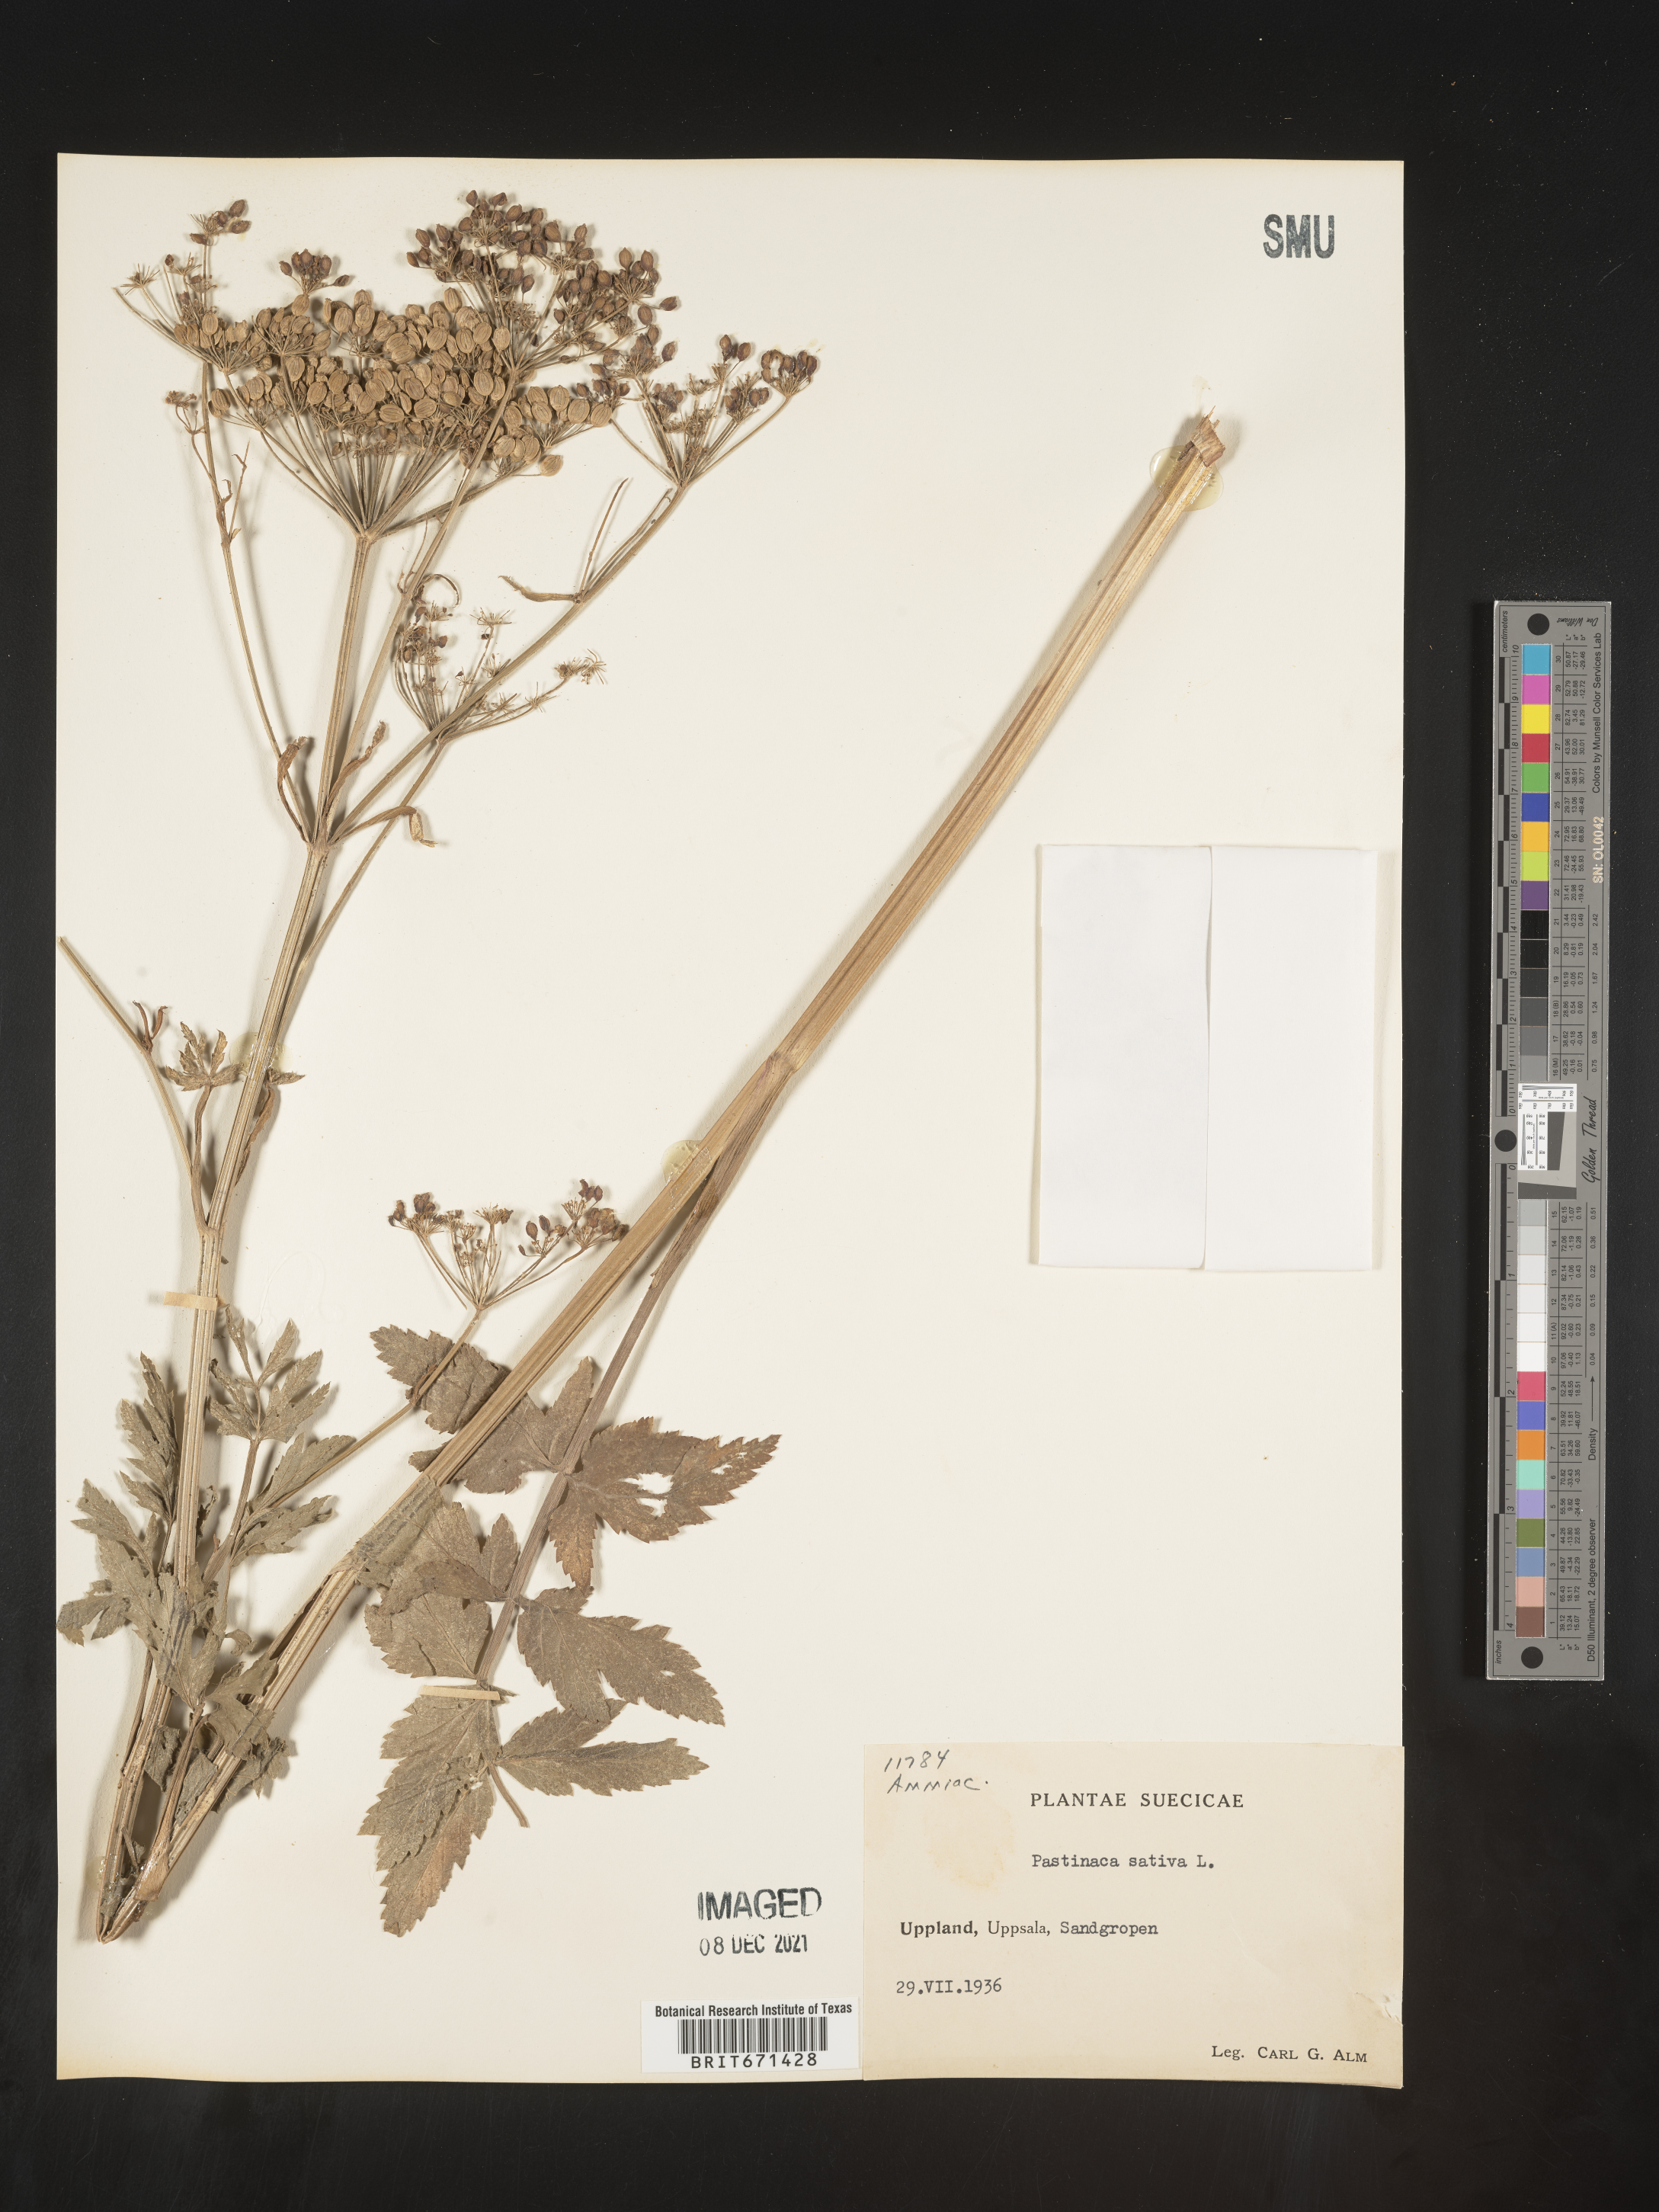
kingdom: Plantae
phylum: Tracheophyta
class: Magnoliopsida
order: Apiales
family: Apiaceae
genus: Pastinaca
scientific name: Pastinaca
